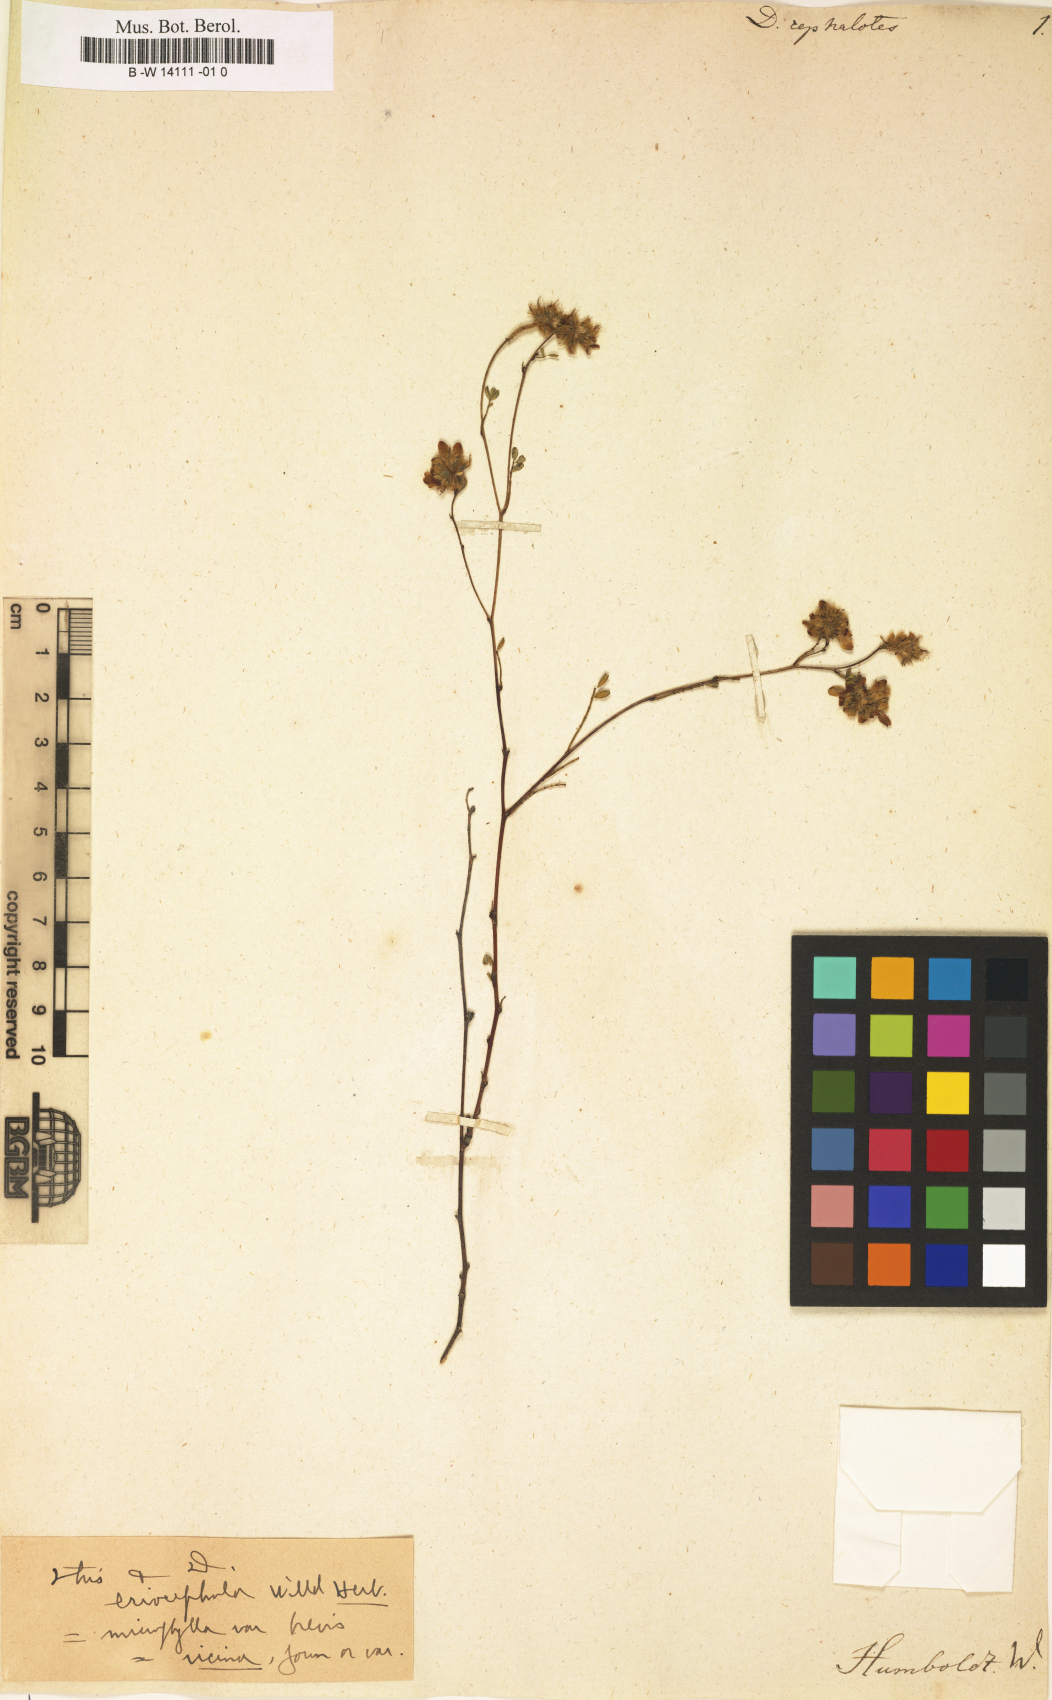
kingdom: Plantae
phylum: Tracheophyta
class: Magnoliopsida
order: Fabales
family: Fabaceae
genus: Dalea
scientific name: Dalea
